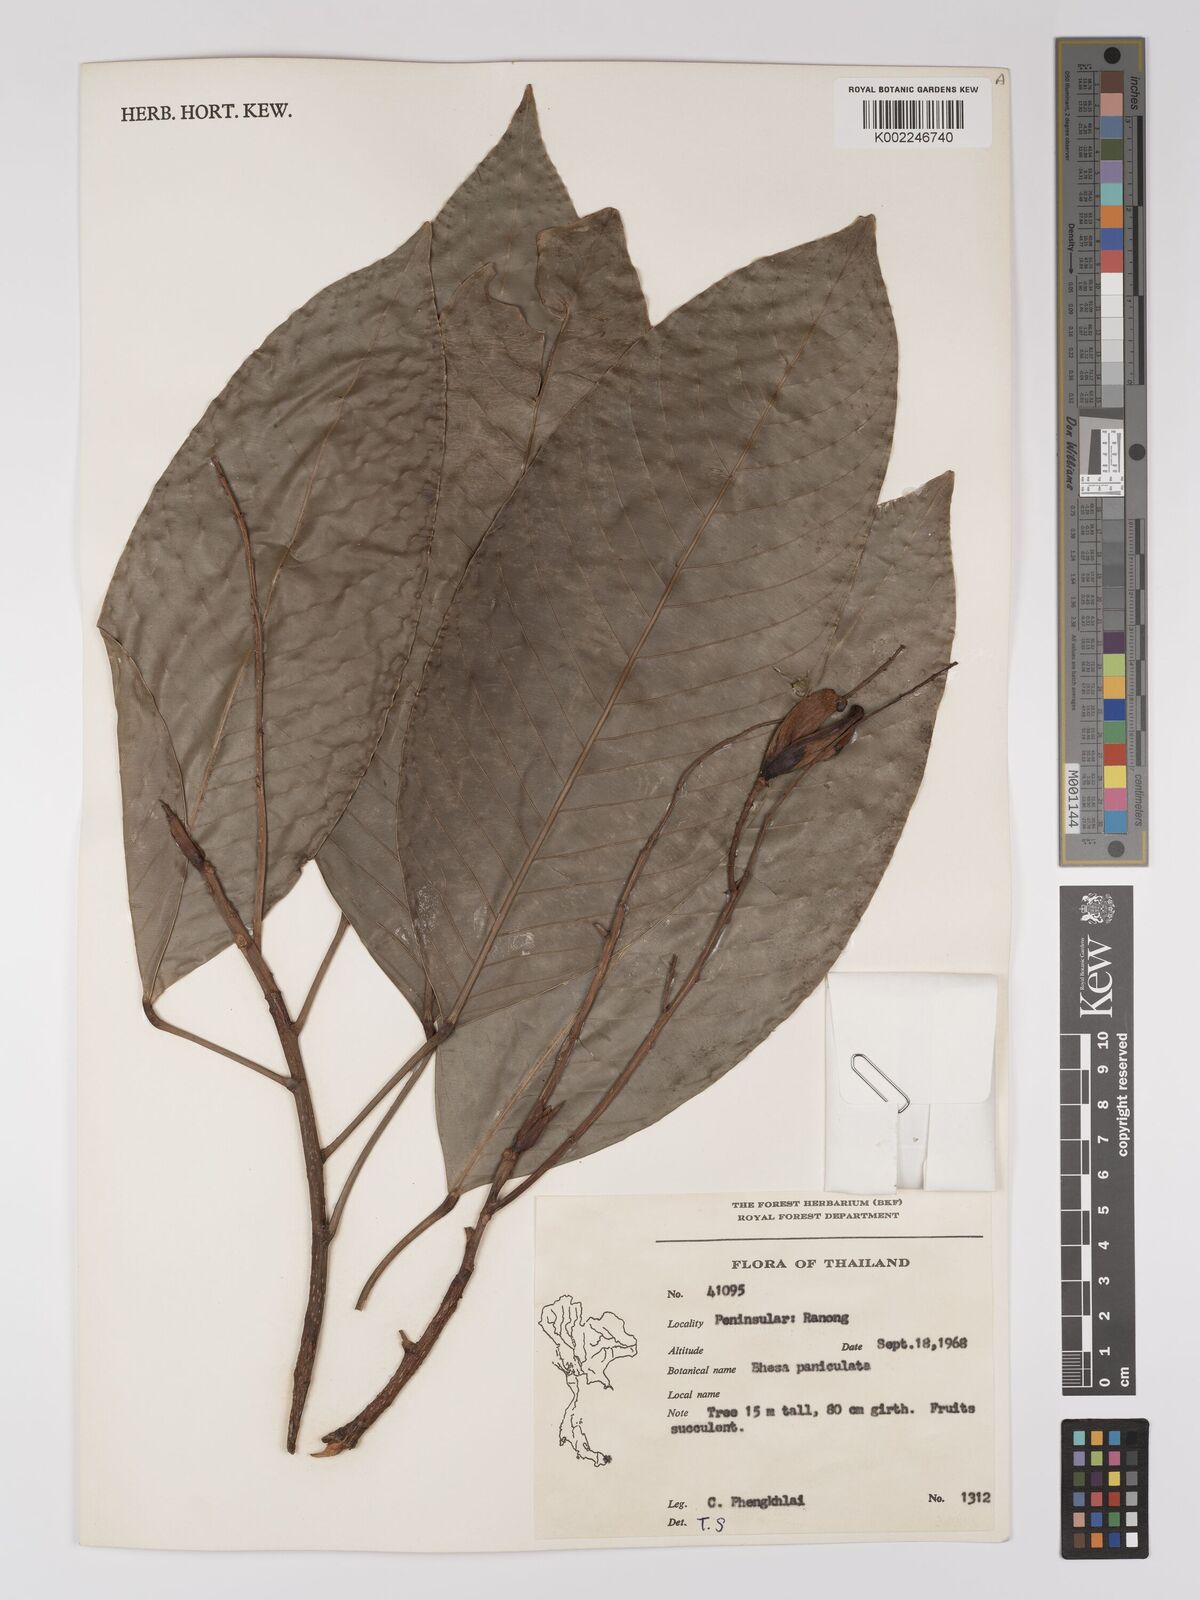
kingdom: Plantae
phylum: Tracheophyta
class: Magnoliopsida
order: Malpighiales
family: Centroplacaceae
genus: Bhesa
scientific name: Bhesa indica
